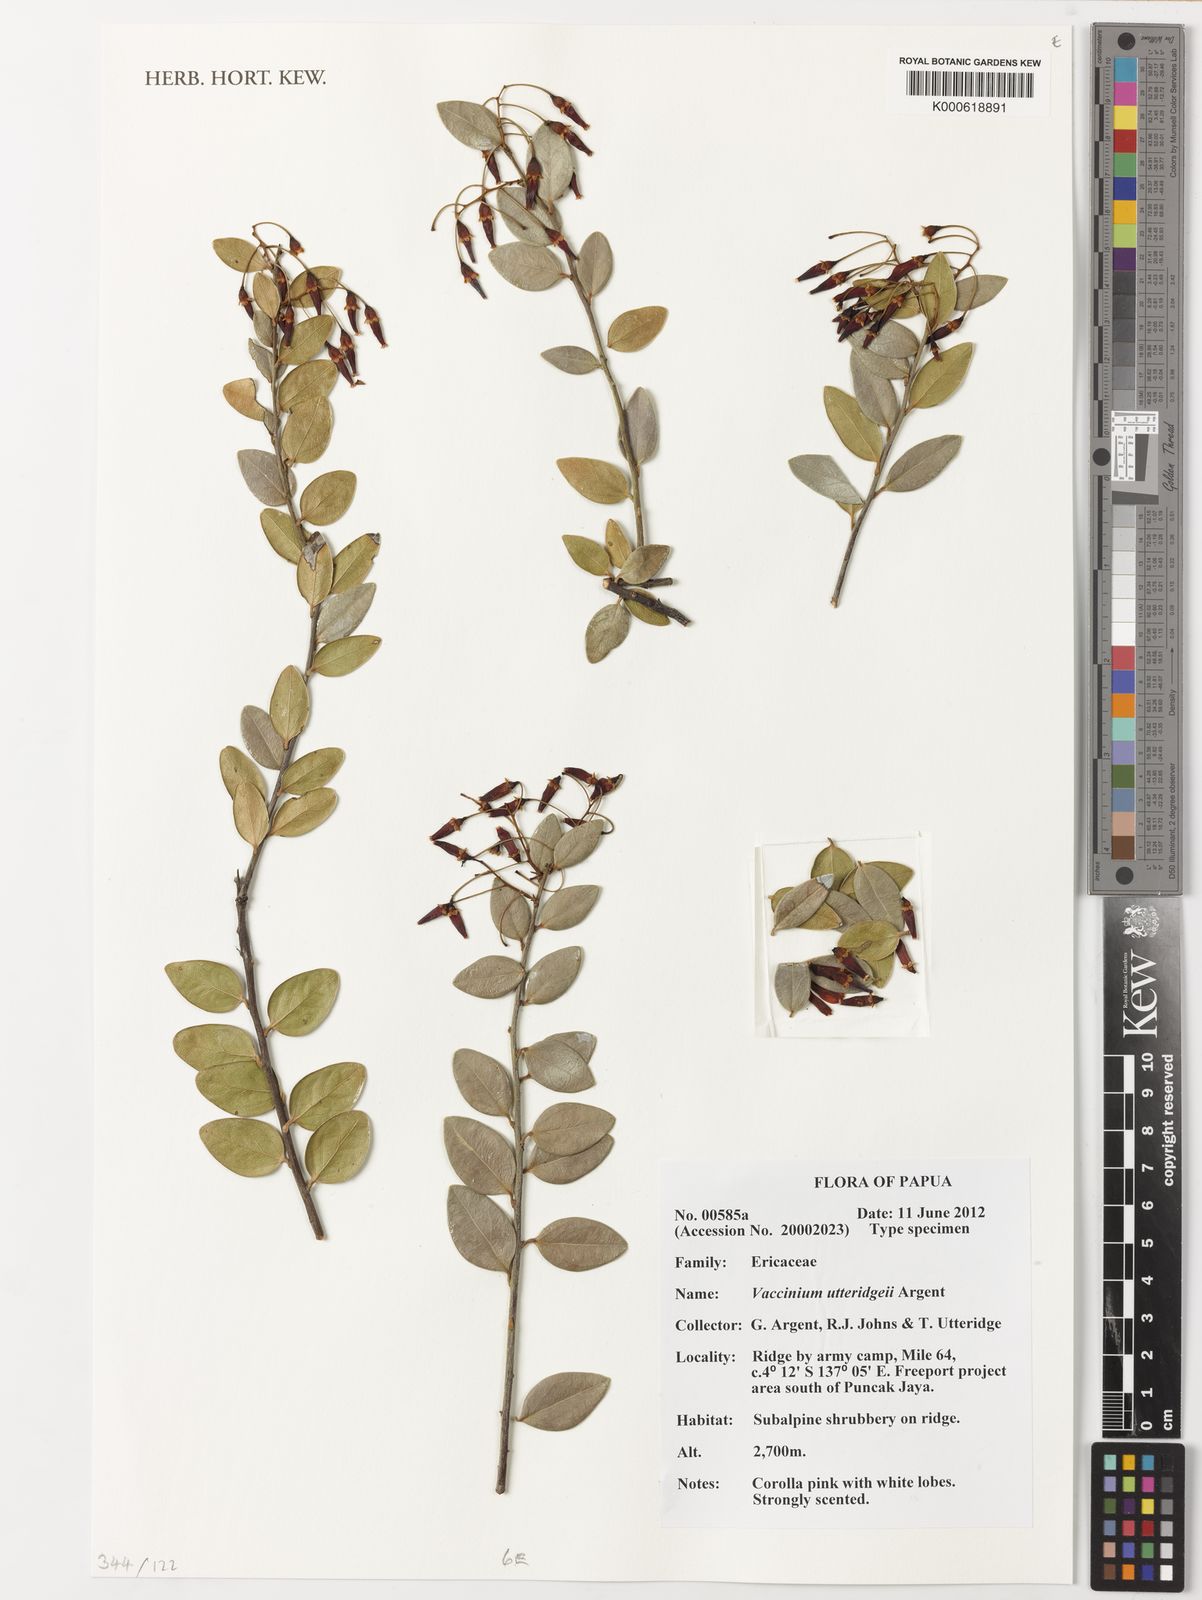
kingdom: Plantae
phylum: Tracheophyta
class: Magnoliopsida
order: Ericales
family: Ericaceae
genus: Vaccinium
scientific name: Vaccinium utteridgei
